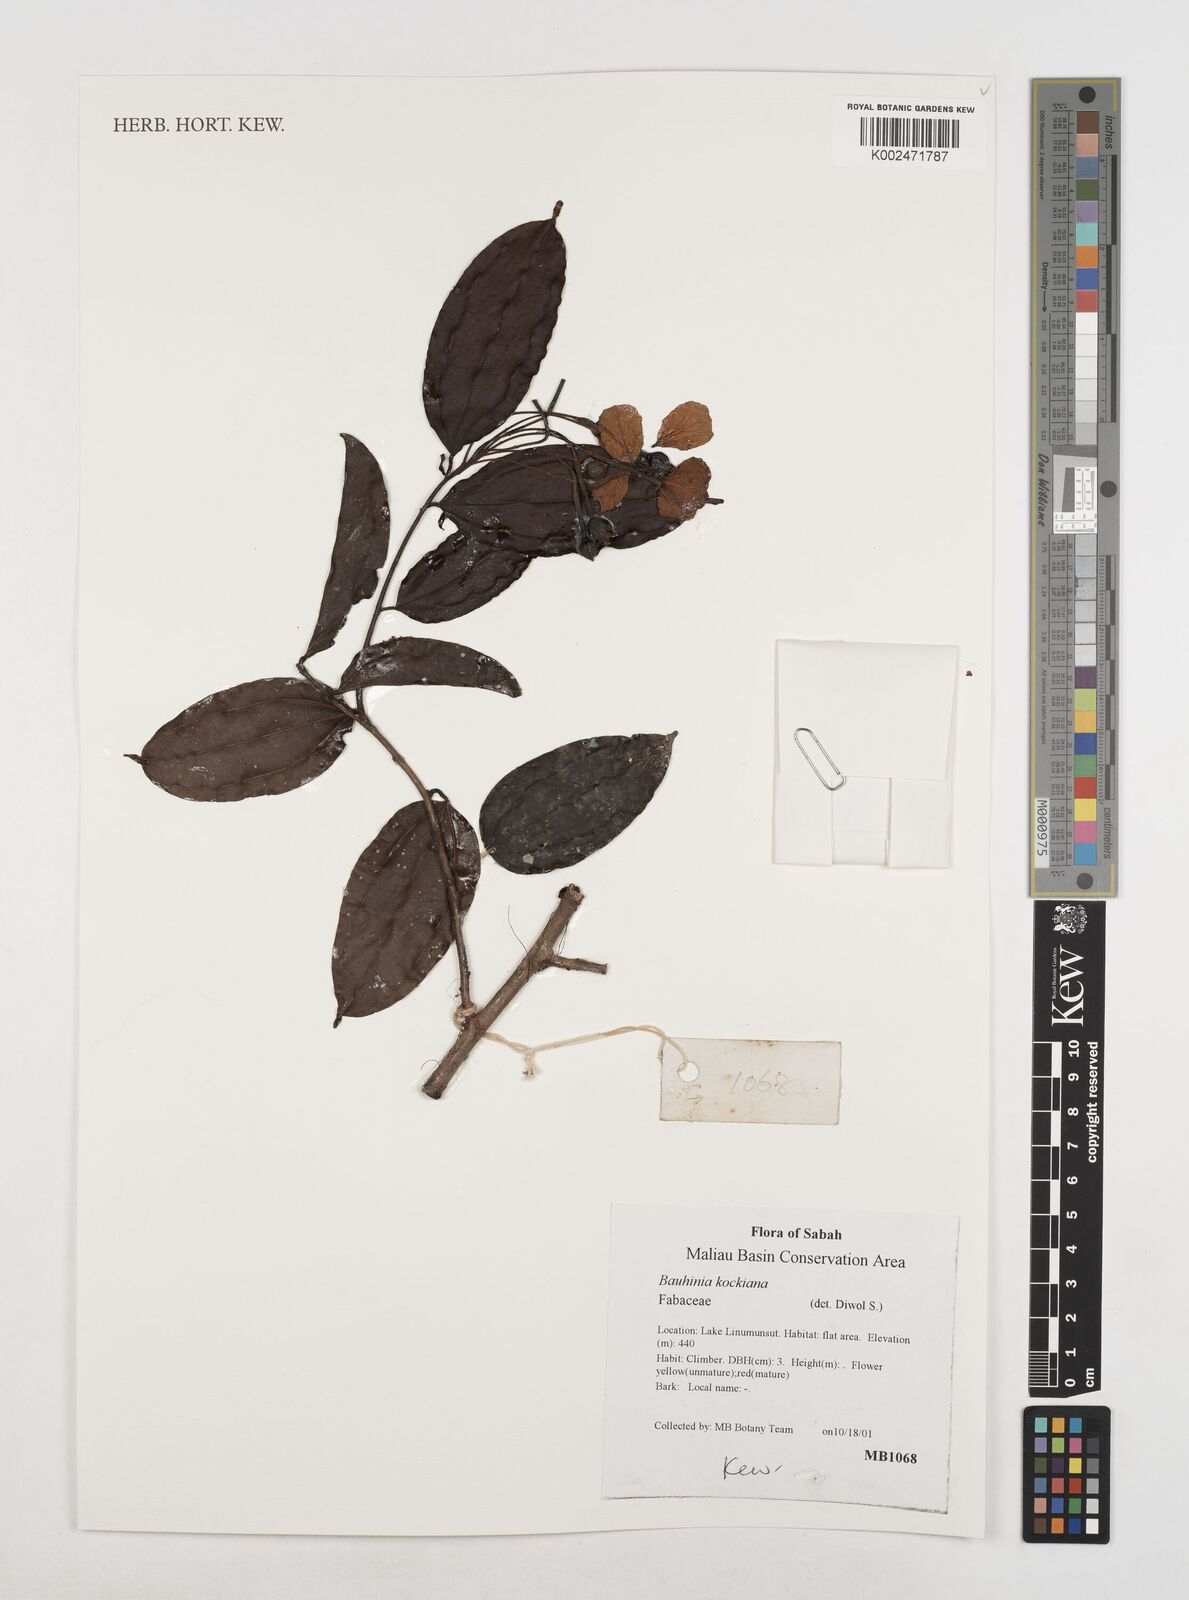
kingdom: Plantae
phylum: Tracheophyta
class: Magnoliopsida
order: Fabales
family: Fabaceae
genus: Phanera
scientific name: Phanera kockiana
